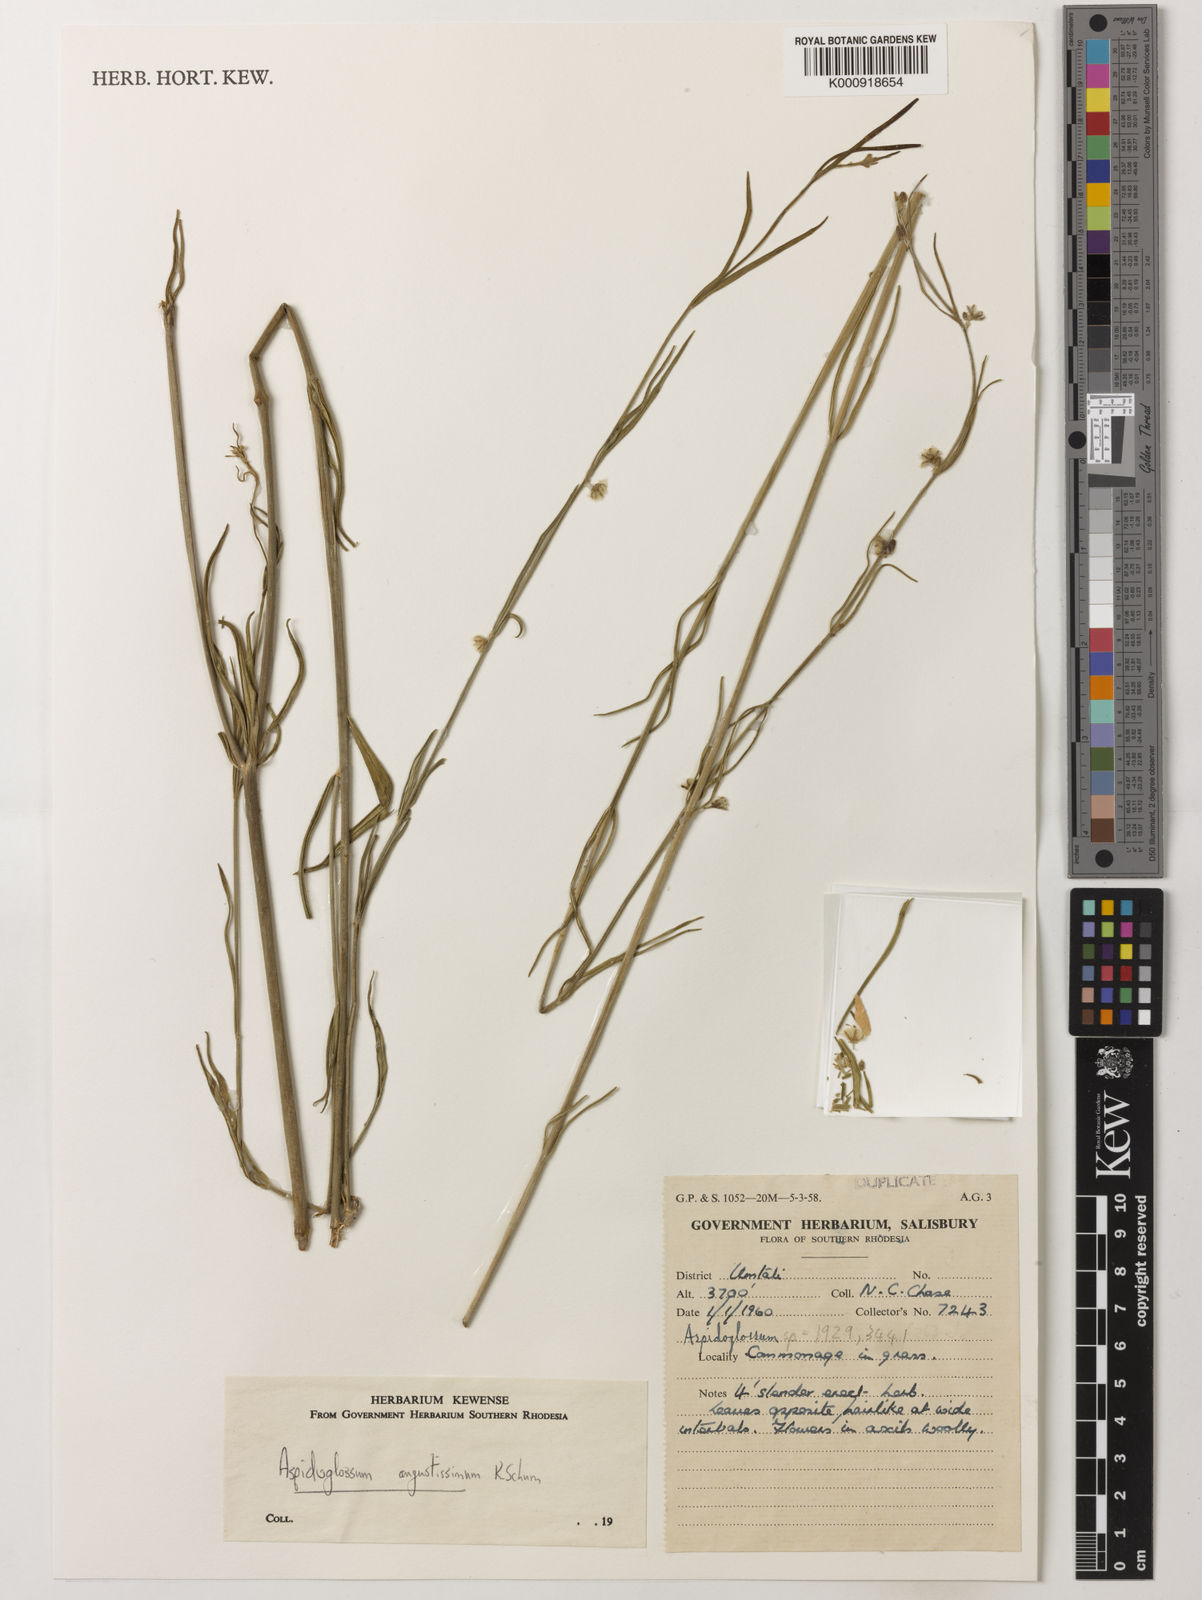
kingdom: Plantae
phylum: Tracheophyta
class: Magnoliopsida
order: Gentianales
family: Apocynaceae
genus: Aspidoglossum
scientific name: Aspidoglossum angustissimum
